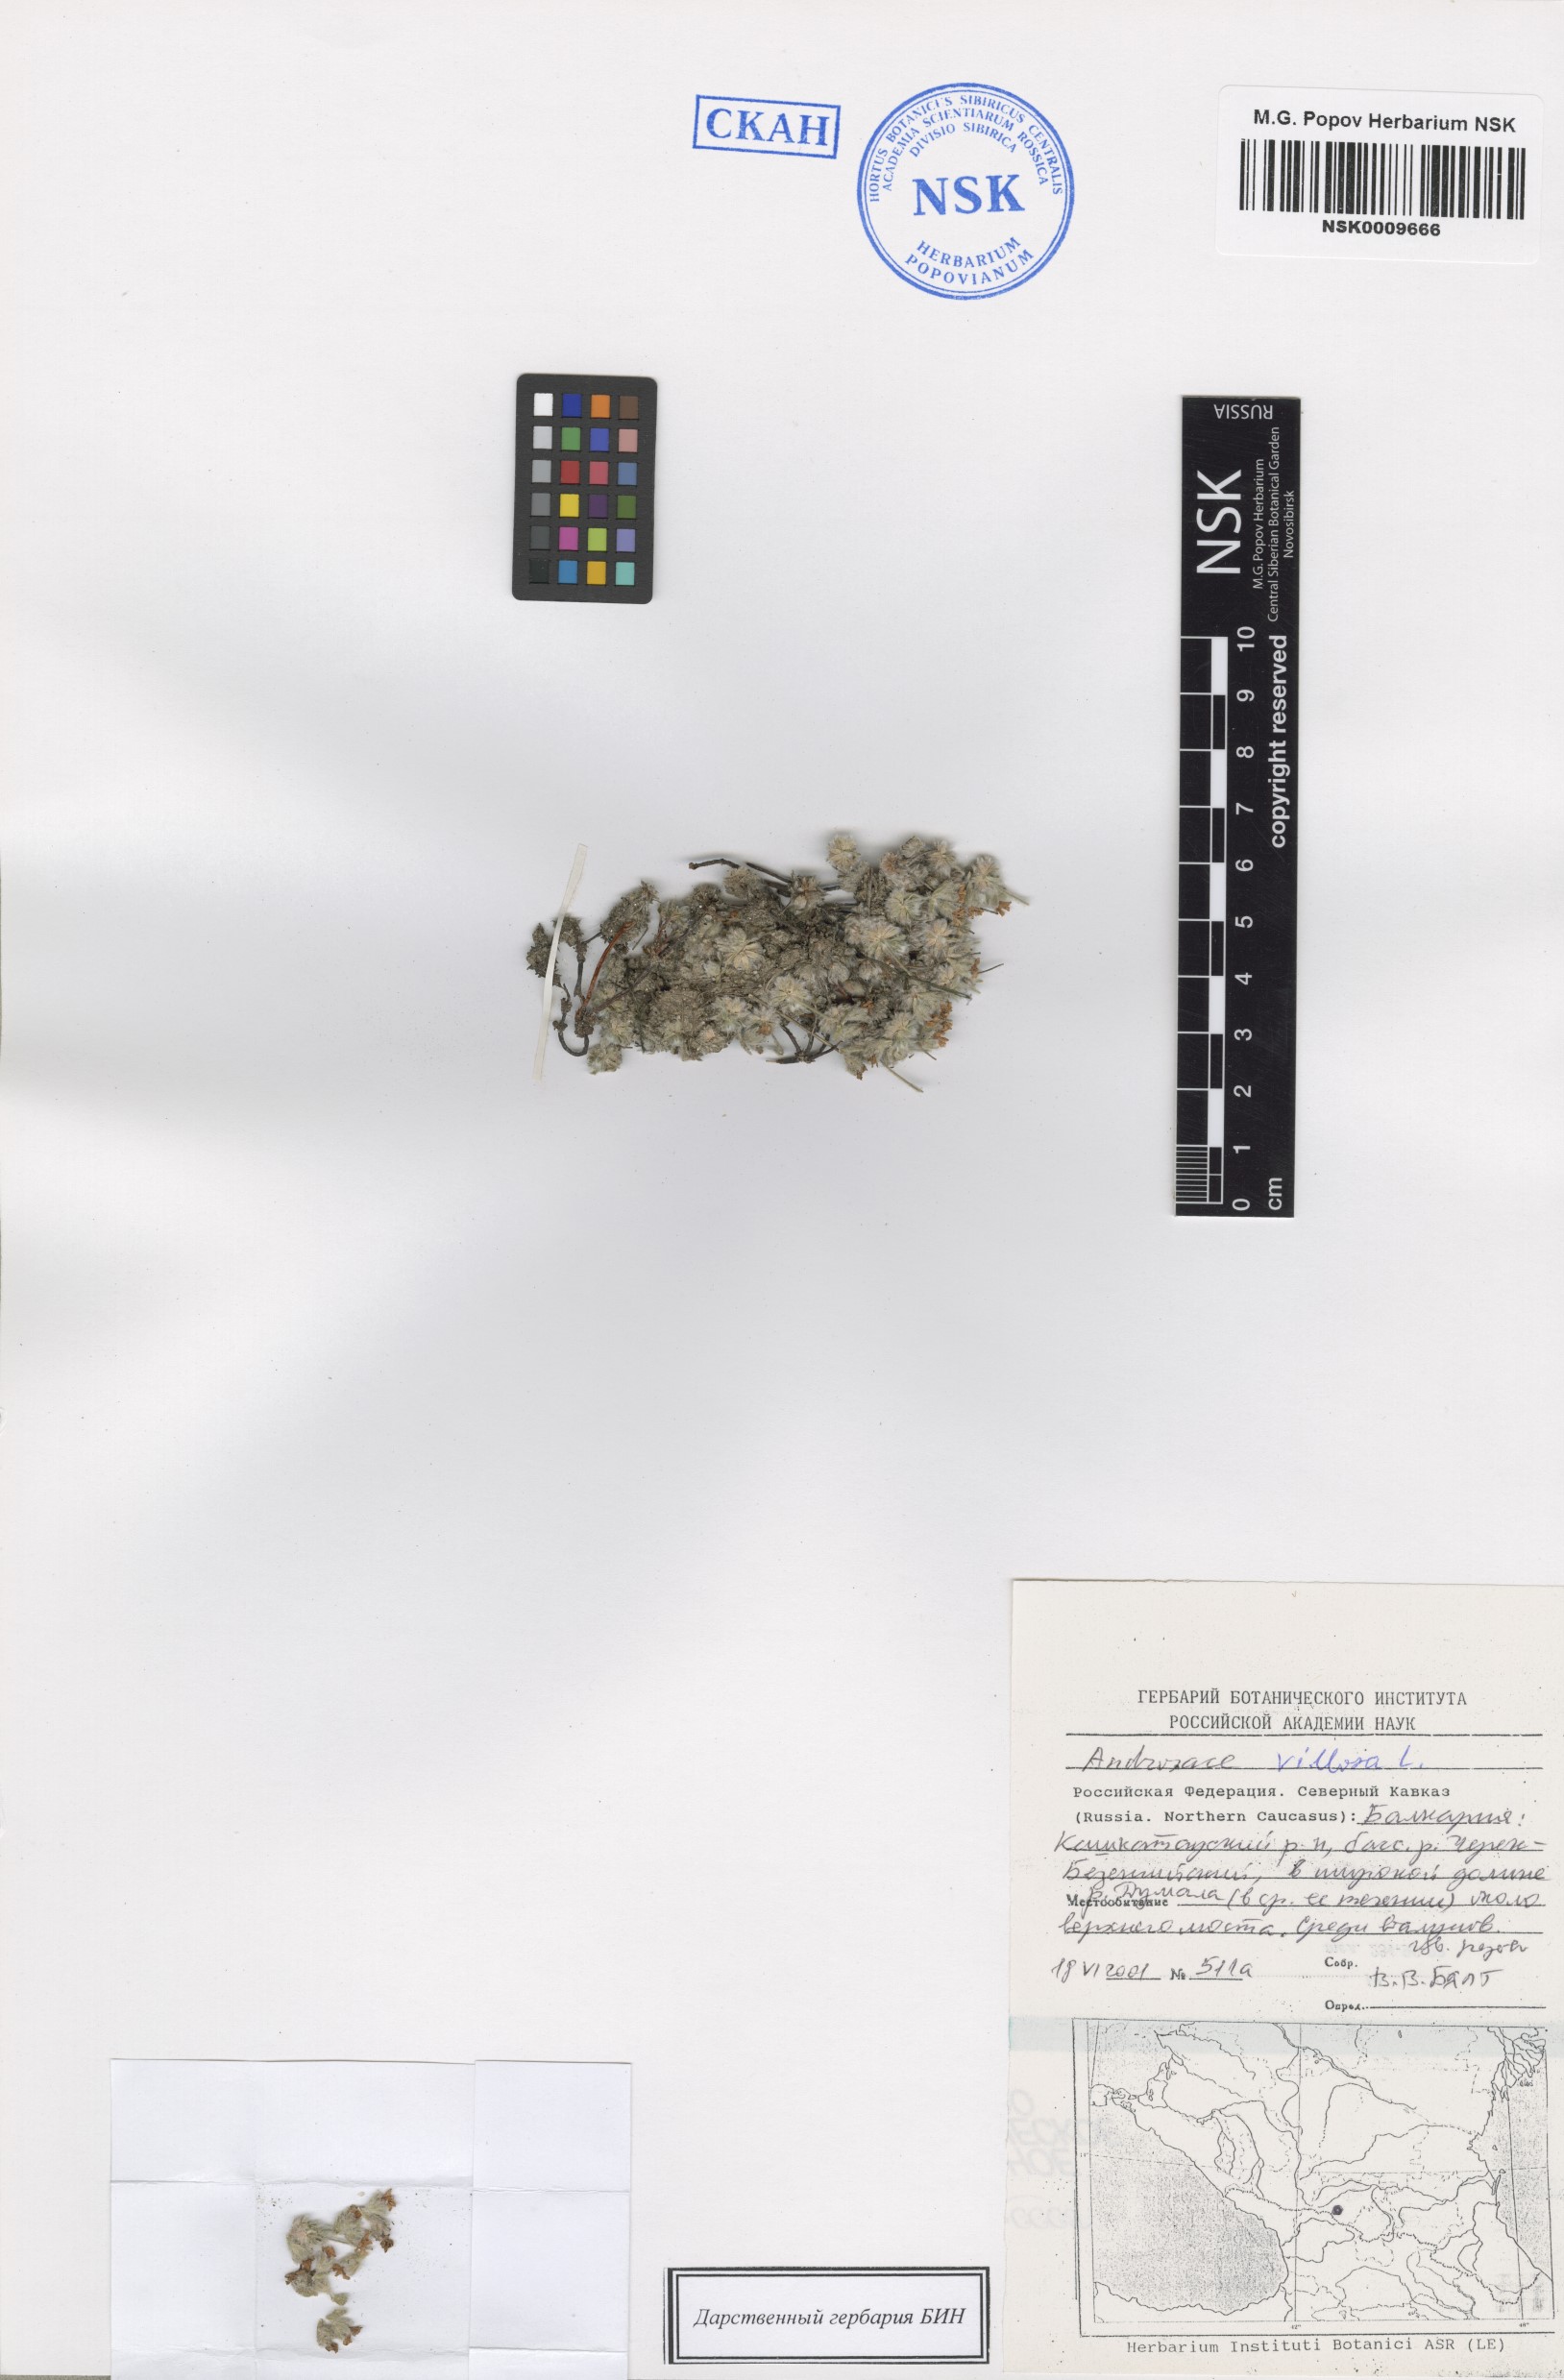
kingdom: Plantae
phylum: Tracheophyta
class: Magnoliopsida
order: Ericales
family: Primulaceae
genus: Androsace
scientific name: Androsace villosa
